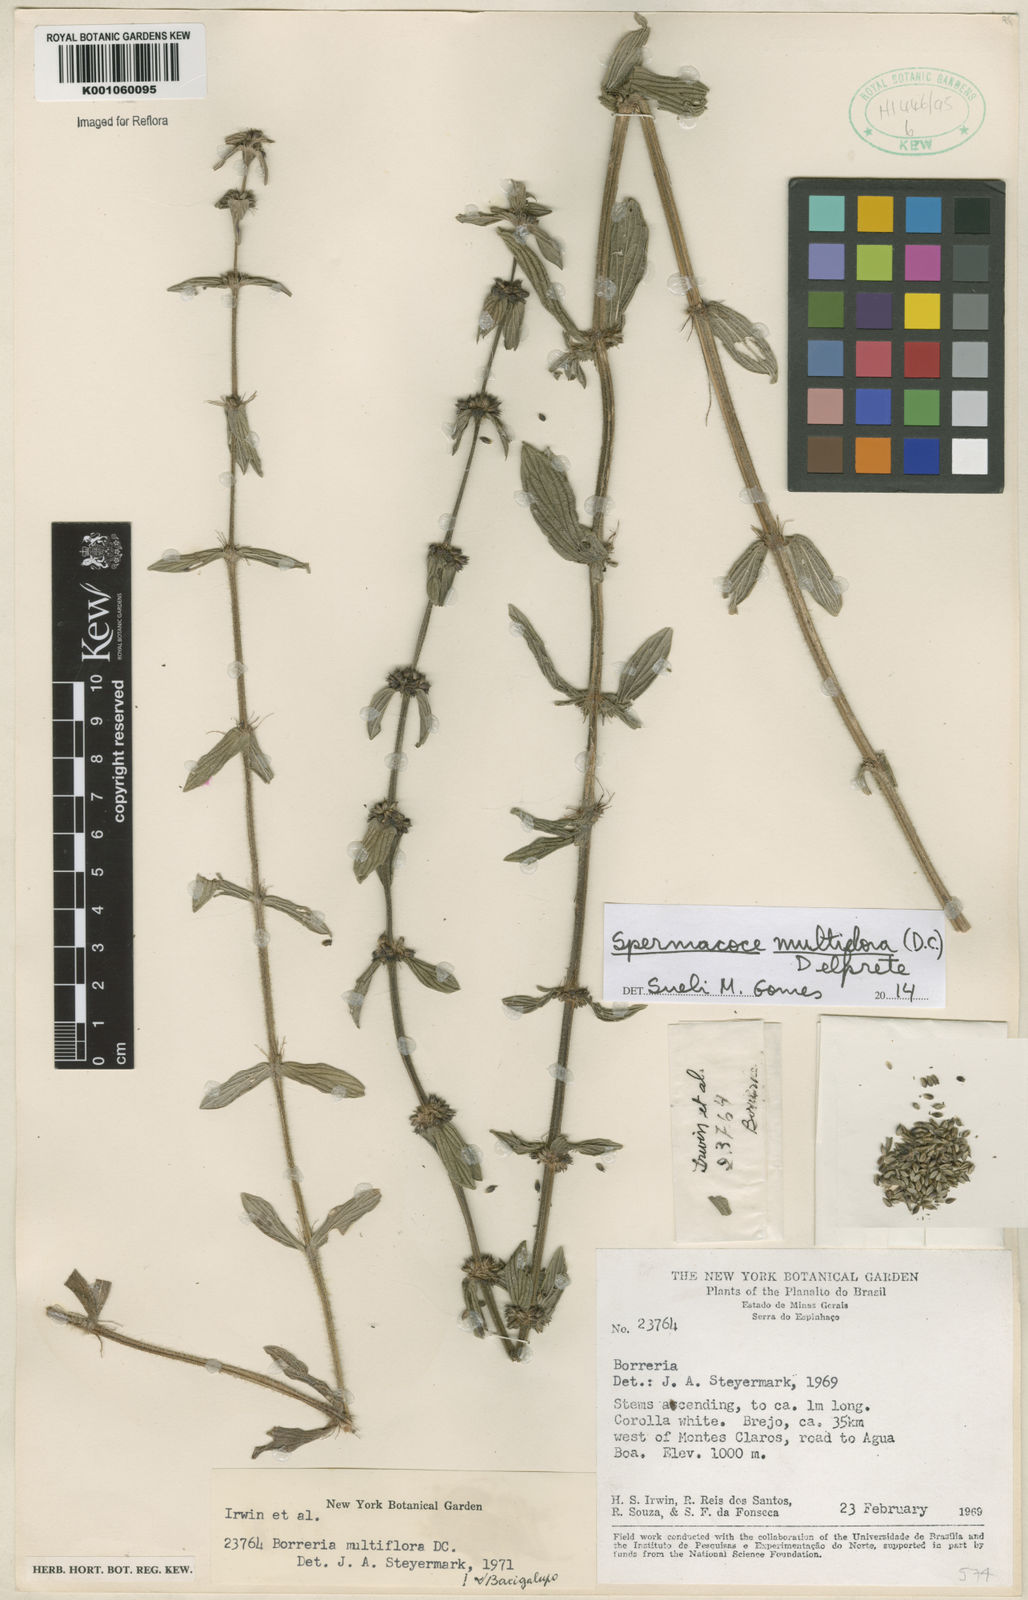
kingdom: Plantae
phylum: Tracheophyta
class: Magnoliopsida
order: Gentianales
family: Rubiaceae
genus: Spermacoce
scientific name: Spermacoce multiflora
